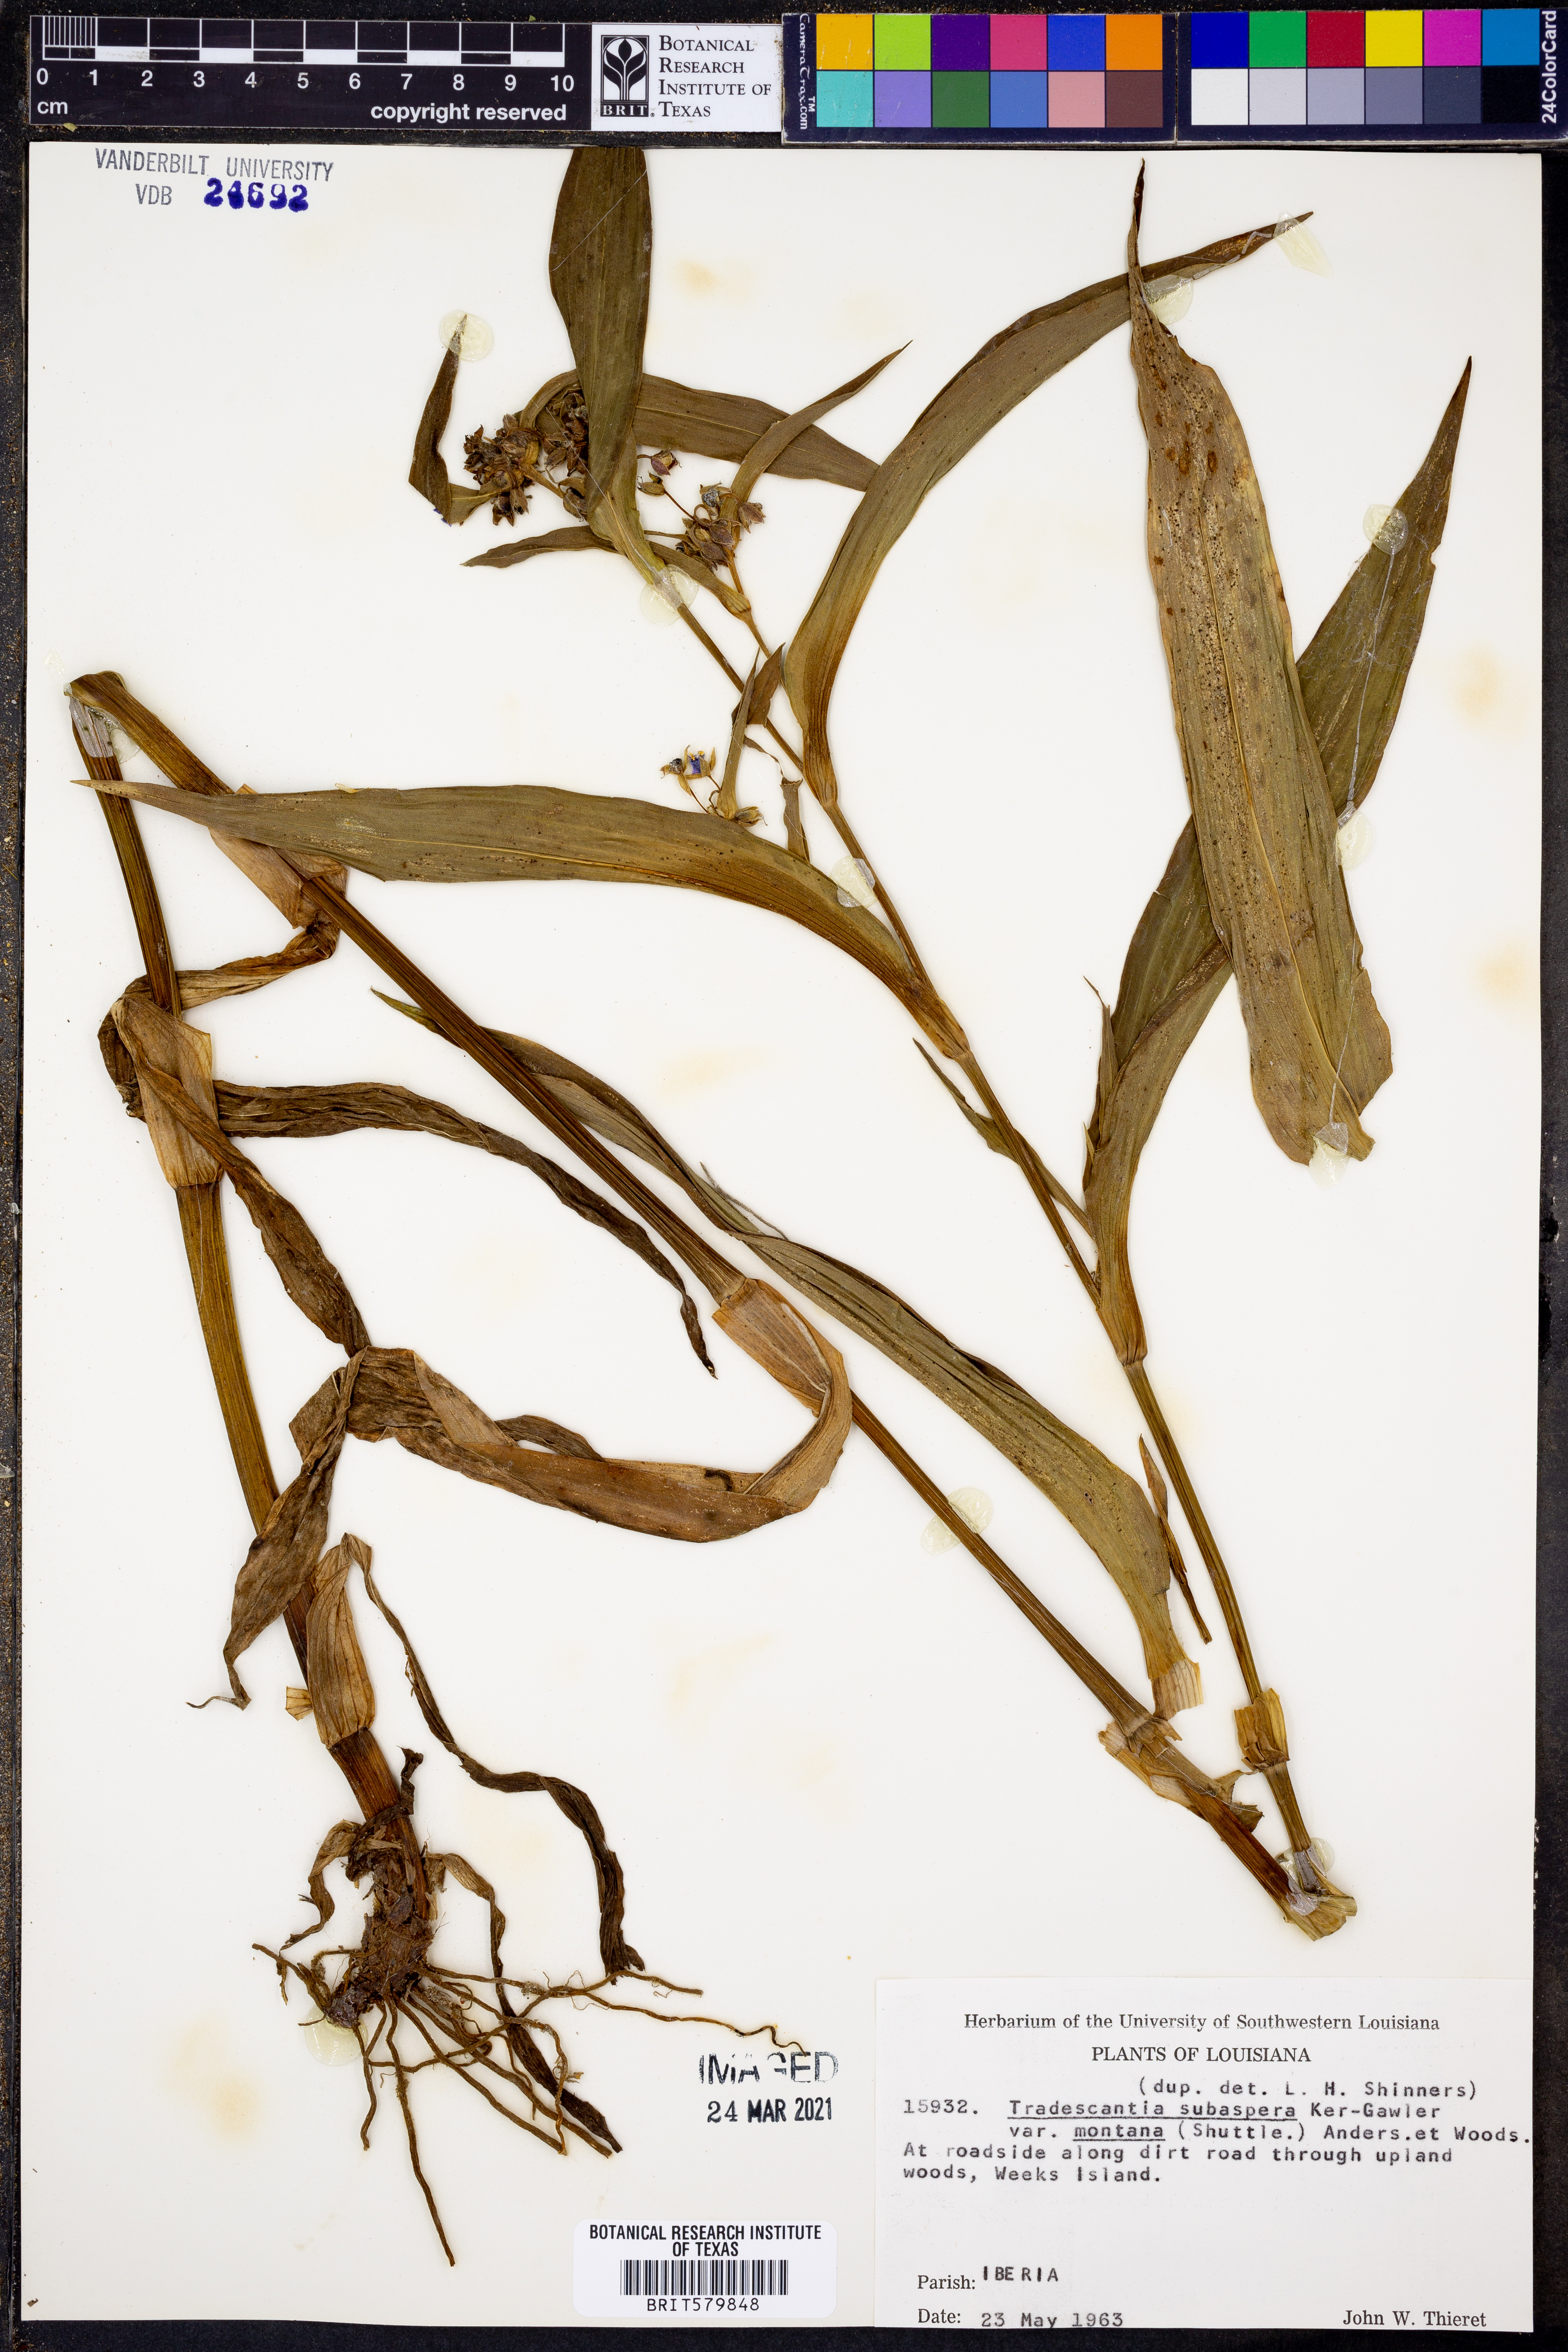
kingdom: Plantae
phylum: Tracheophyta
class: Liliopsida
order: Commelinales
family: Commelinaceae
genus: Tradescantia
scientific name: Tradescantia subaspera
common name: Wide-leaf spiderwort
